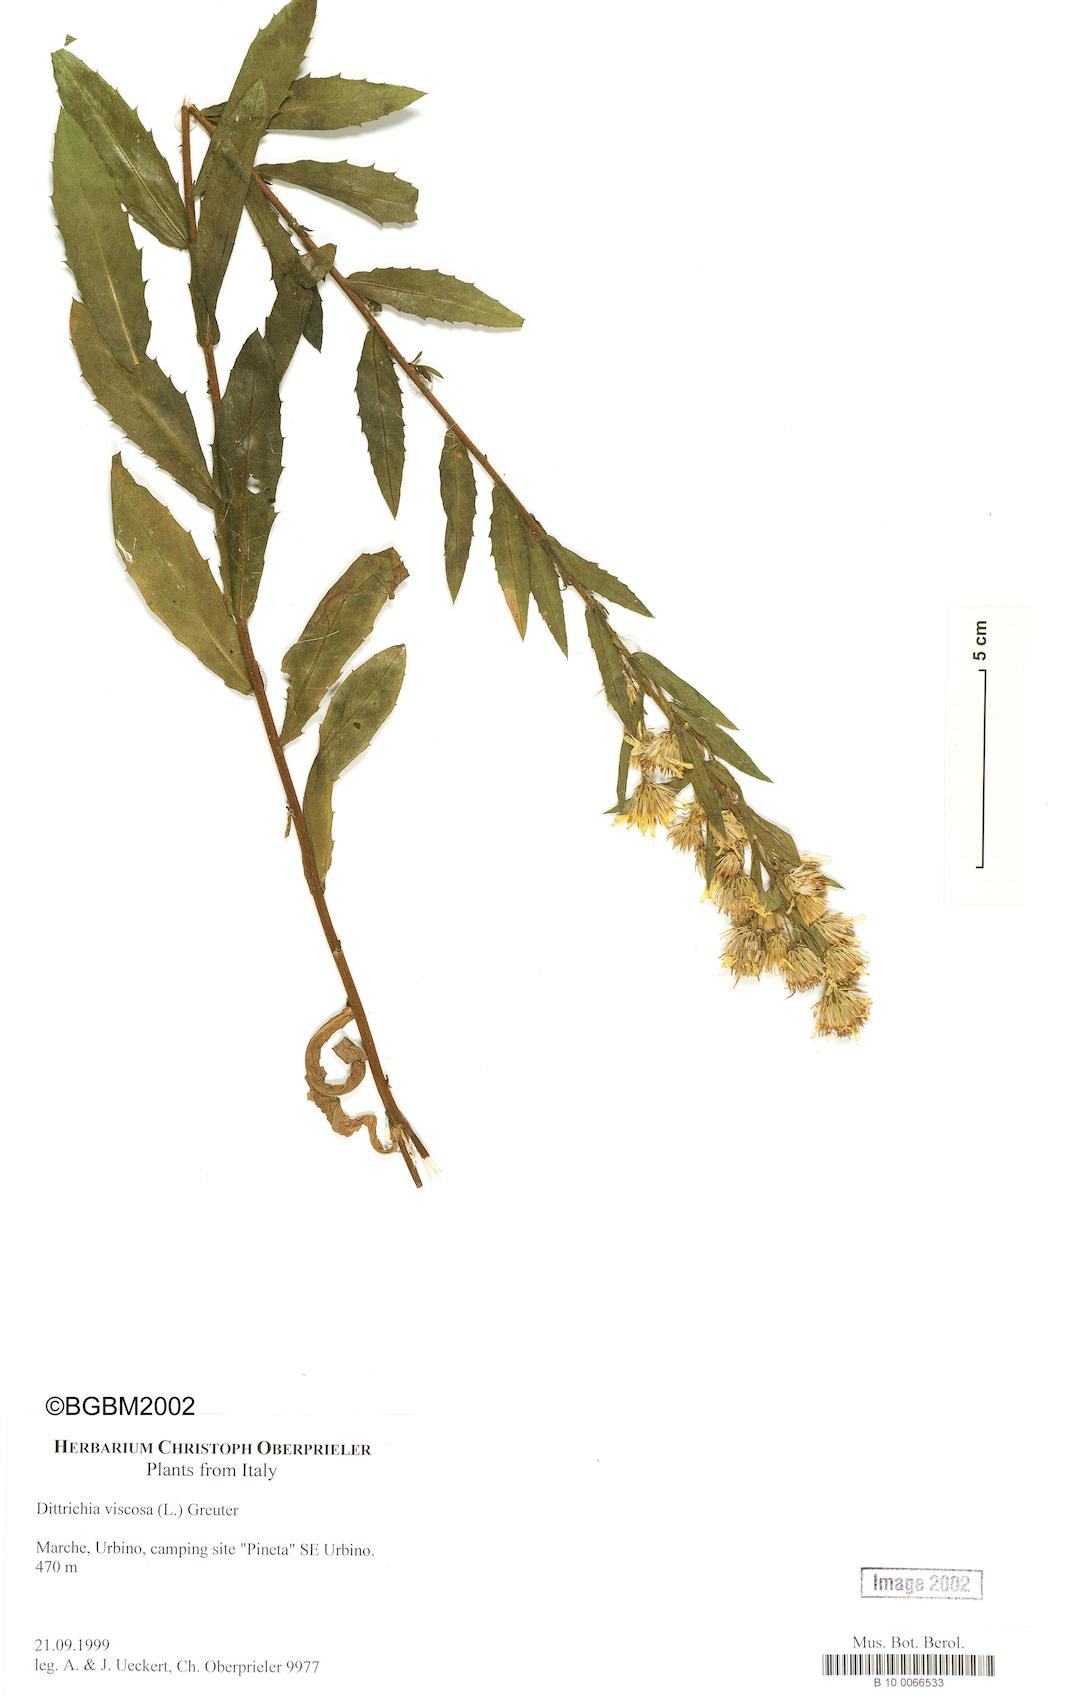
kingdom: Plantae
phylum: Tracheophyta
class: Magnoliopsida
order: Asterales
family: Asteraceae
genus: Dittrichia
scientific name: Dittrichia viscosa
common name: Woody fleabane
